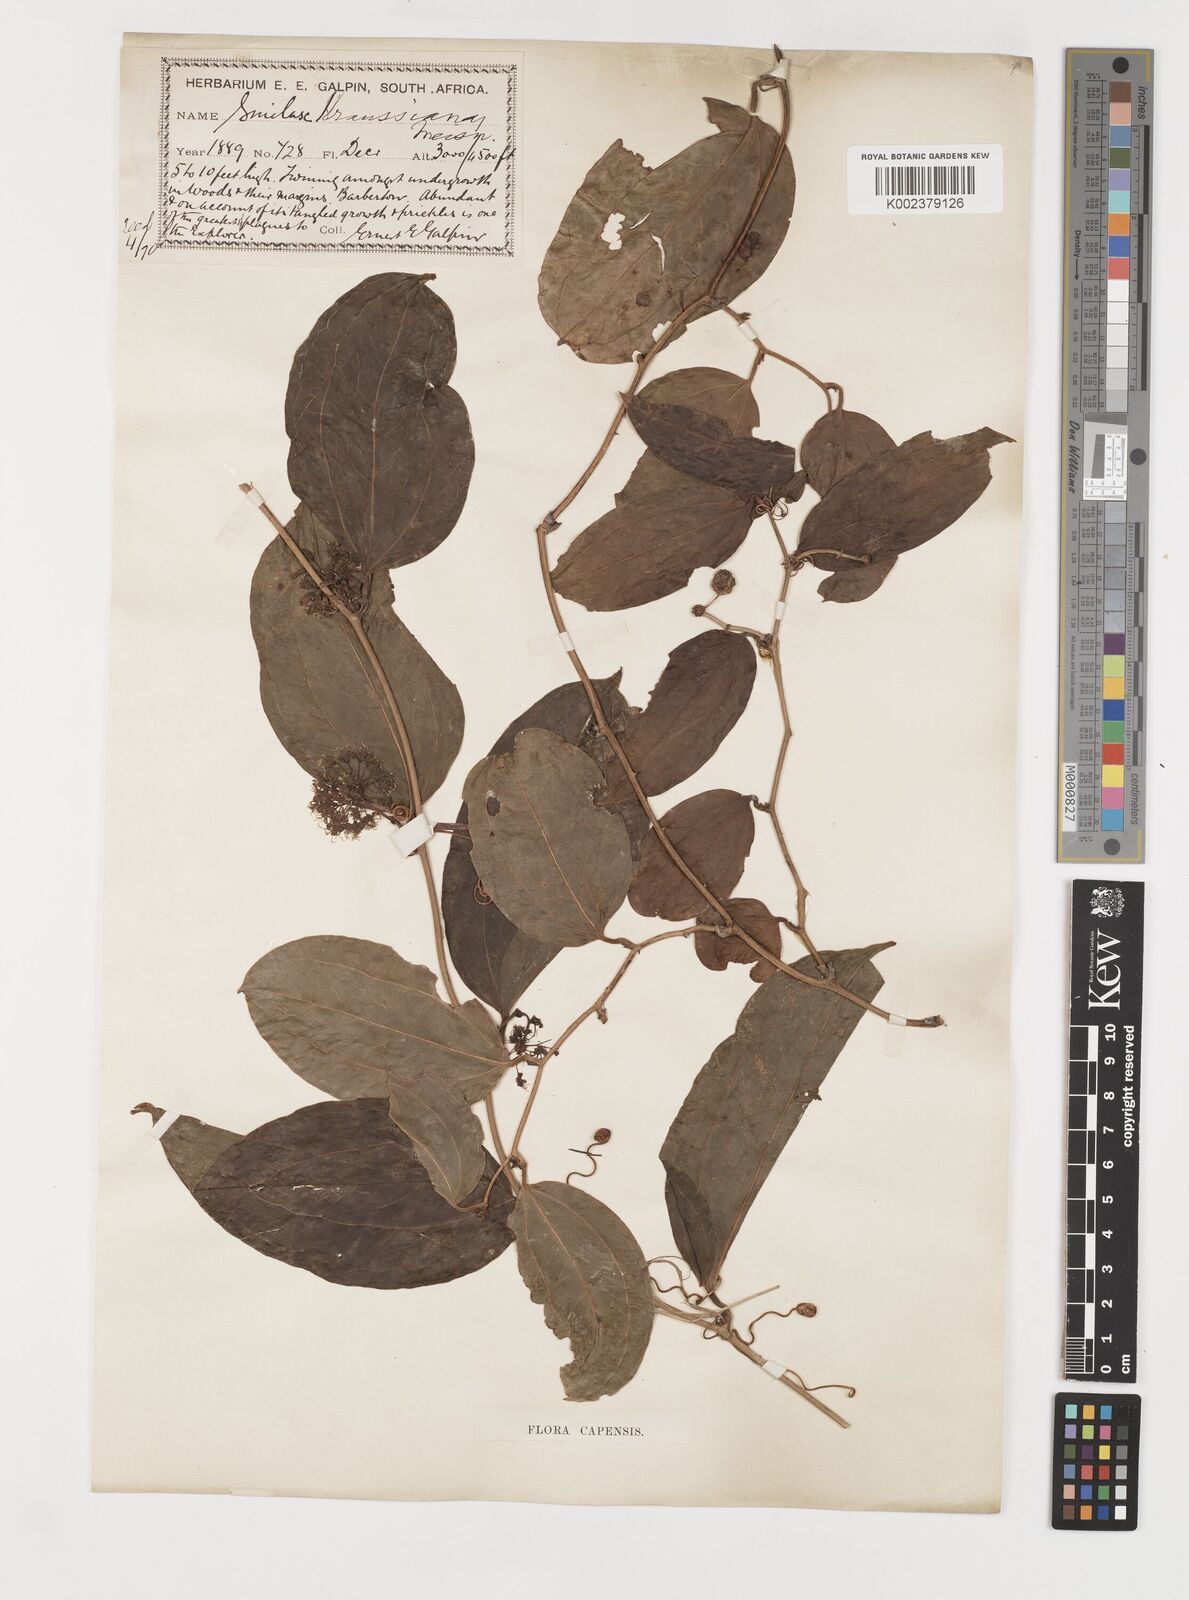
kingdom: Plantae
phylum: Tracheophyta
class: Liliopsida
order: Liliales
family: Smilacaceae
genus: Smilax
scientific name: Smilax anceps
